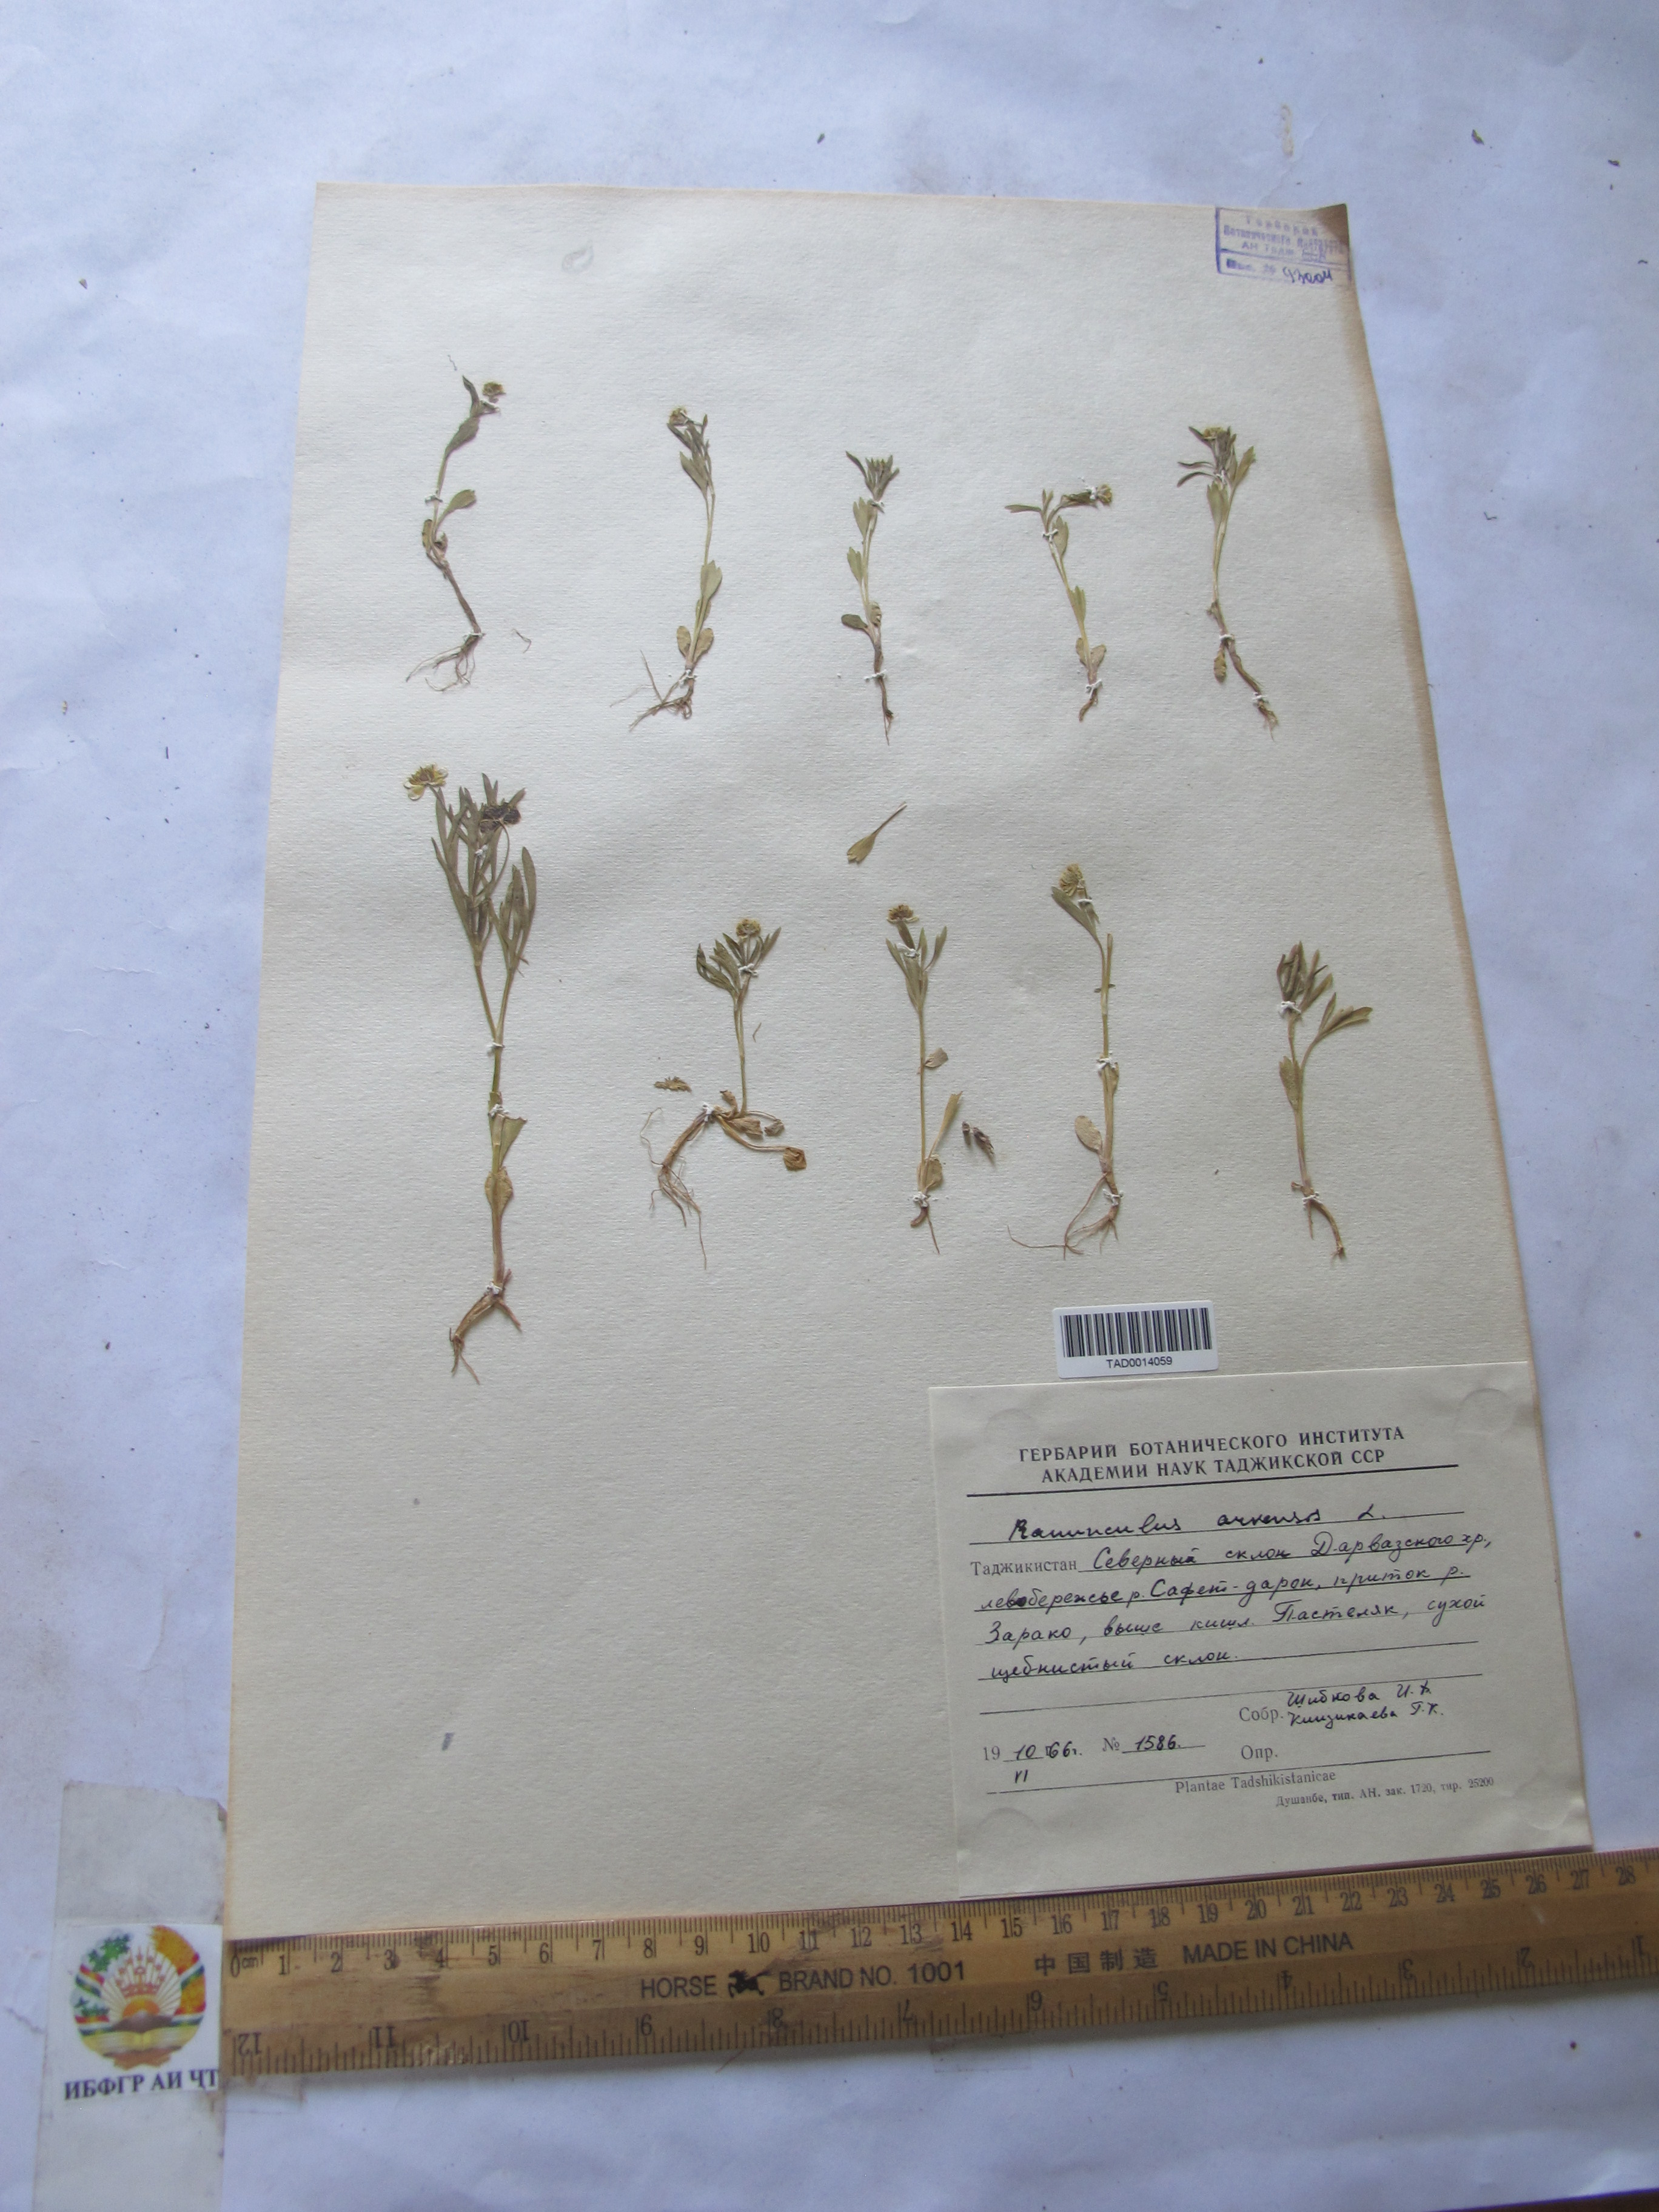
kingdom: Plantae
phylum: Tracheophyta
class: Magnoliopsida
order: Ranunculales
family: Ranunculaceae
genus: Ranunculus
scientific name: Ranunculus arvensis
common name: Corn buttercup
